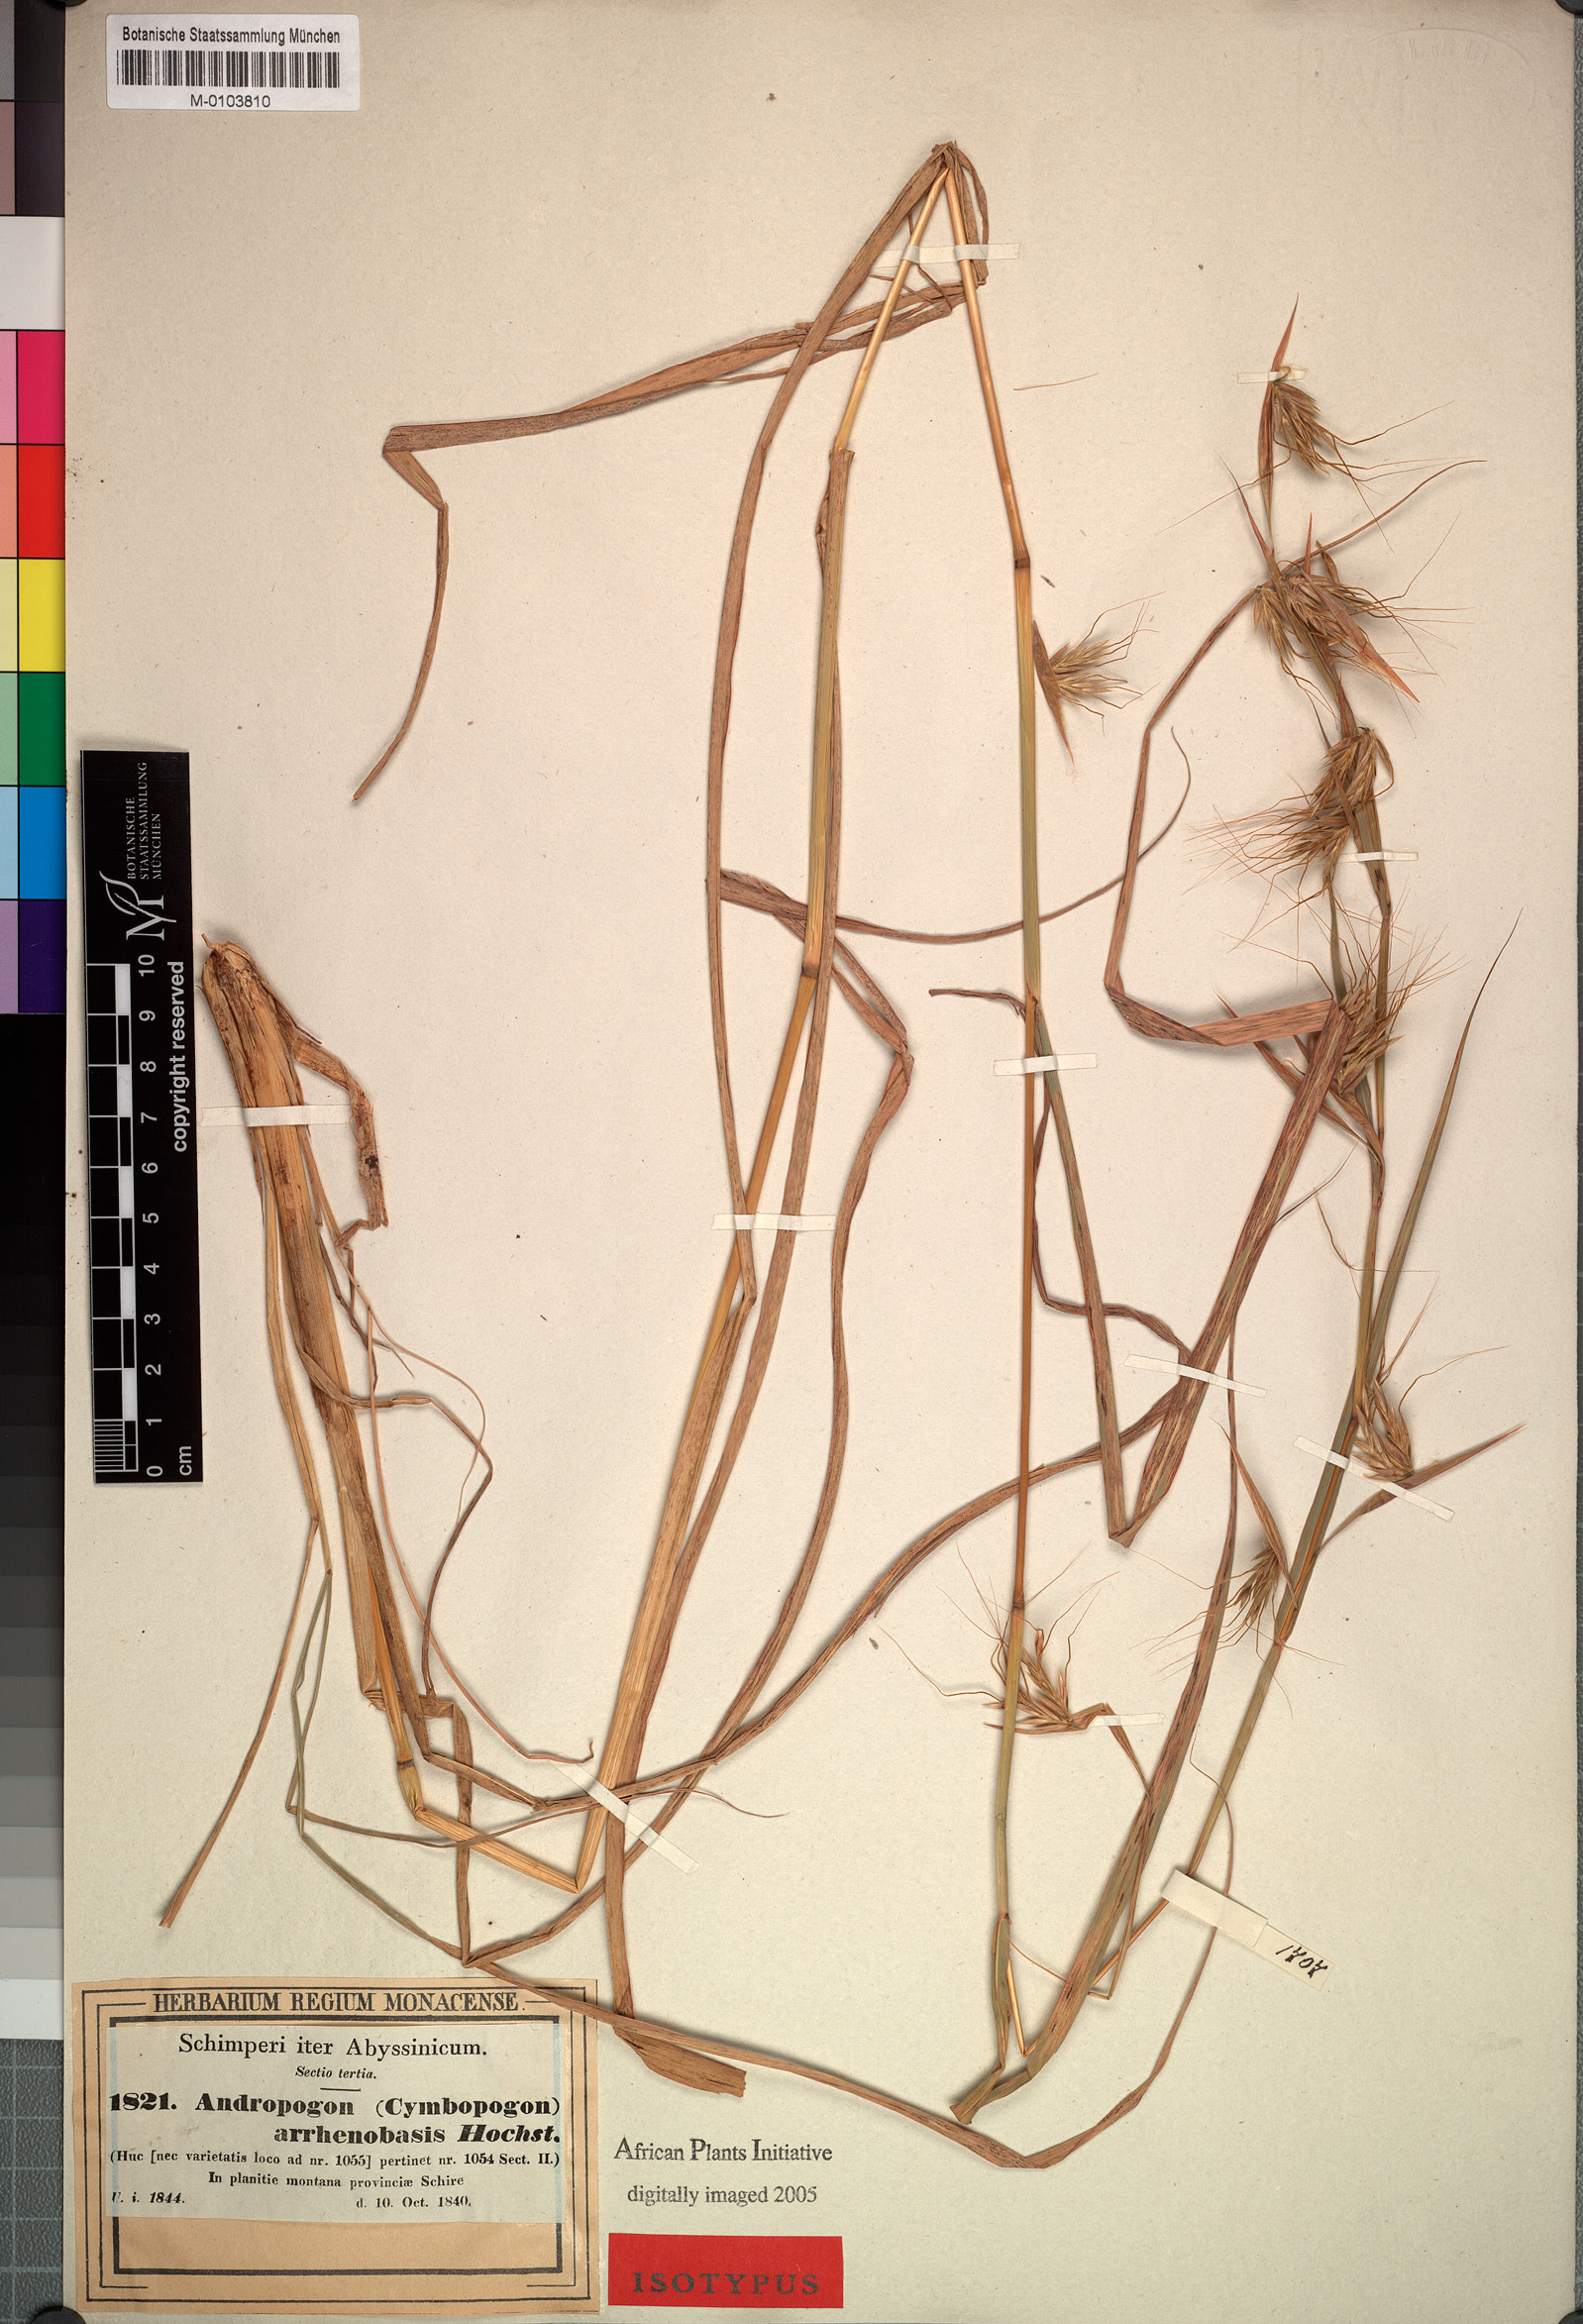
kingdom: Plantae
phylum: Tracheophyta
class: Liliopsida
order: Poales
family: Poaceae
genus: Hyparrhenia
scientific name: Hyparrhenia papillipes
